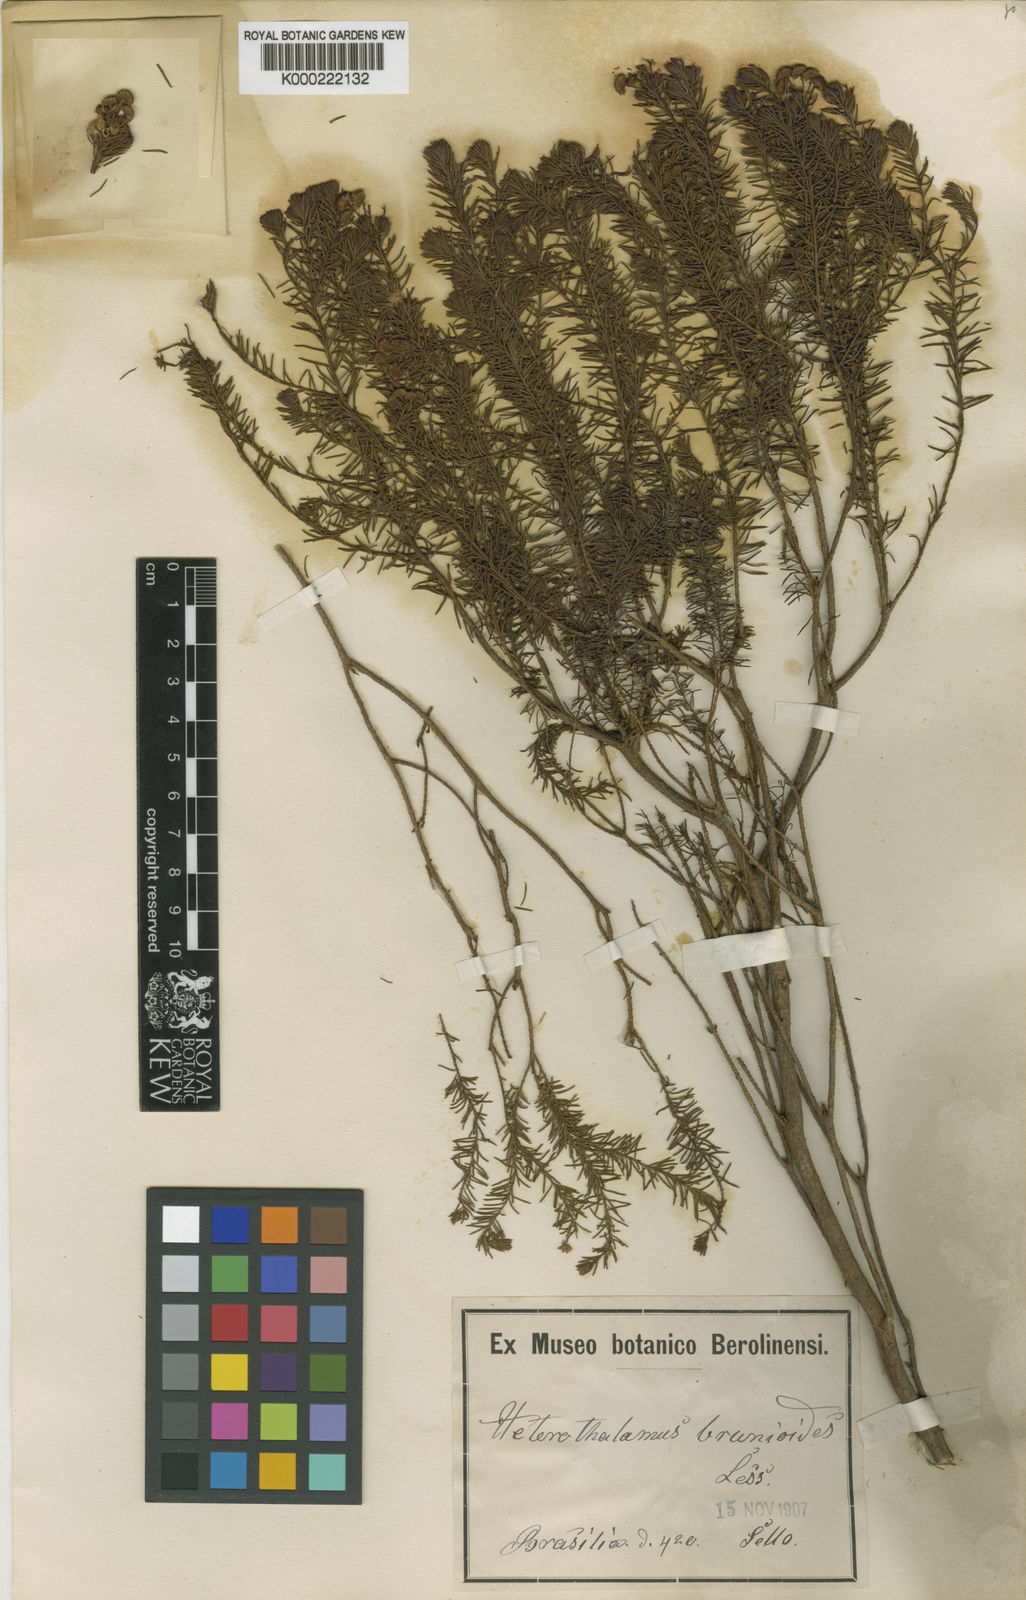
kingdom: Plantae
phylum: Tracheophyta
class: Magnoliopsida
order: Asterales
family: Asteraceae
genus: Baccharis
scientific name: Baccharis aliena
